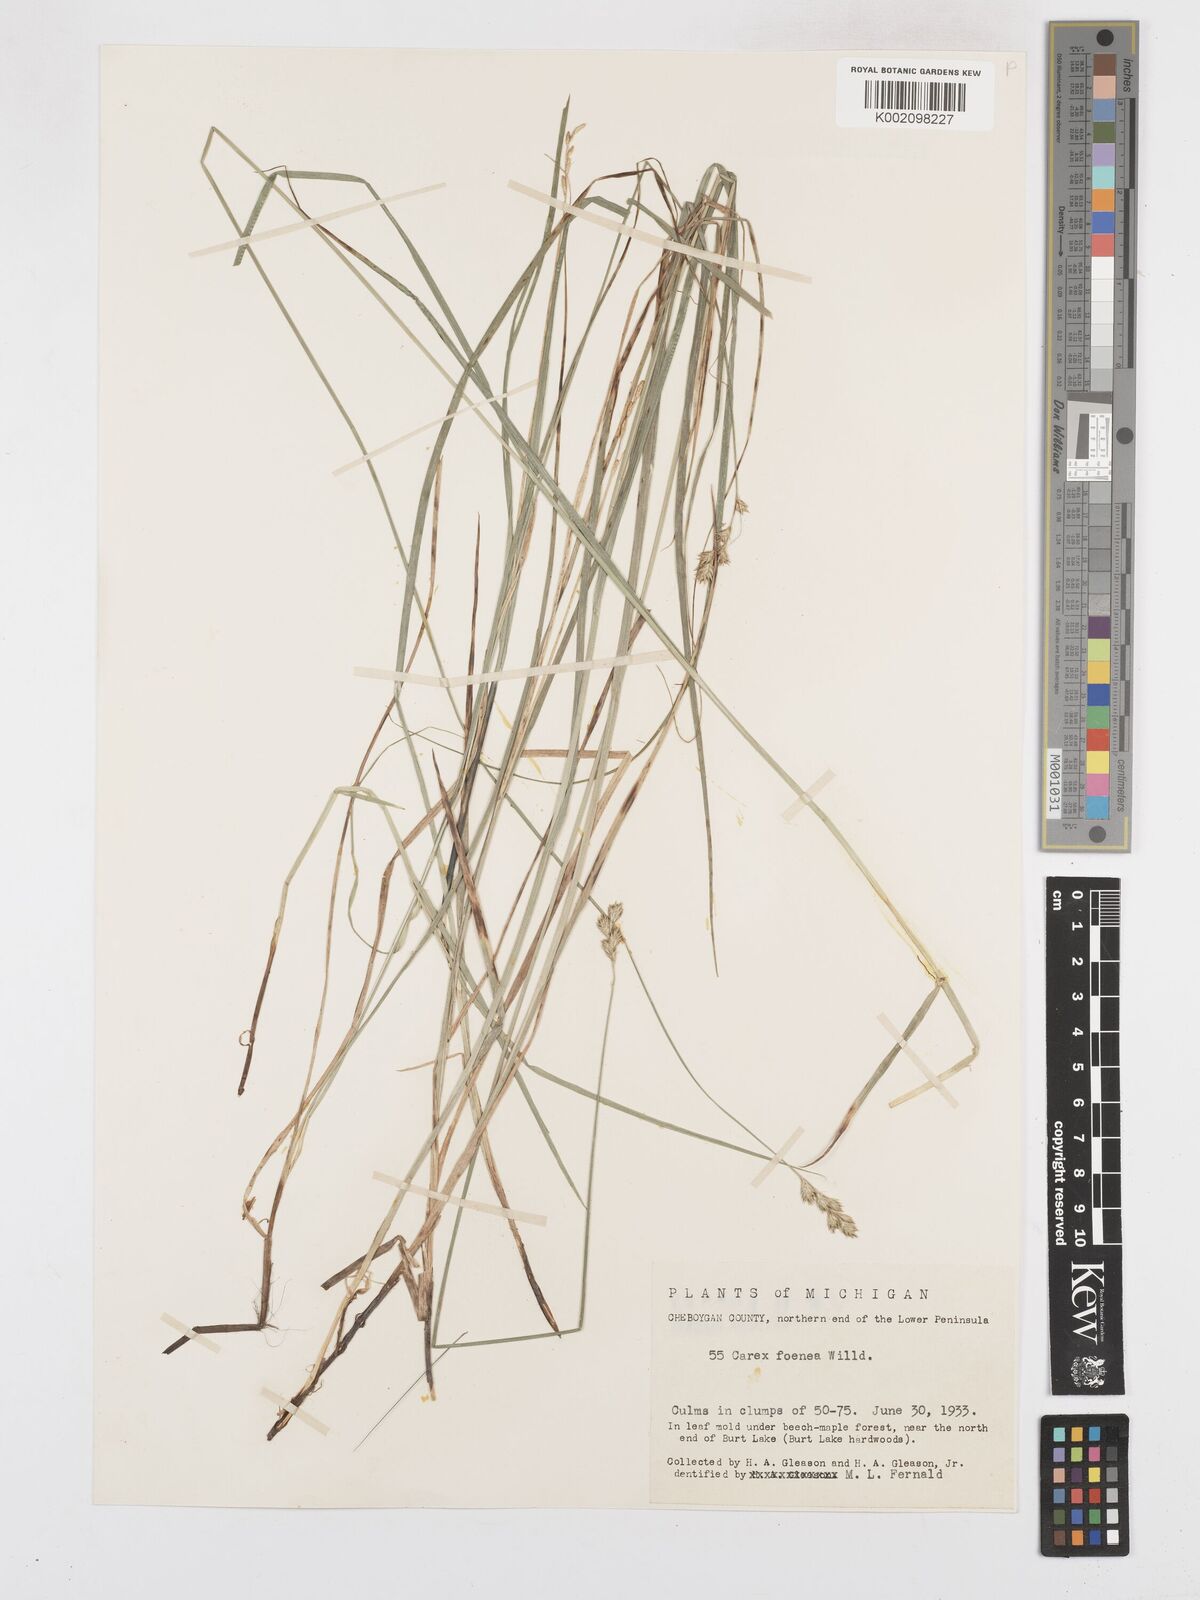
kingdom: Plantae
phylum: Tracheophyta
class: Liliopsida
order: Poales
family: Cyperaceae
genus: Carex
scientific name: Carex foenea
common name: Bronze sedge
